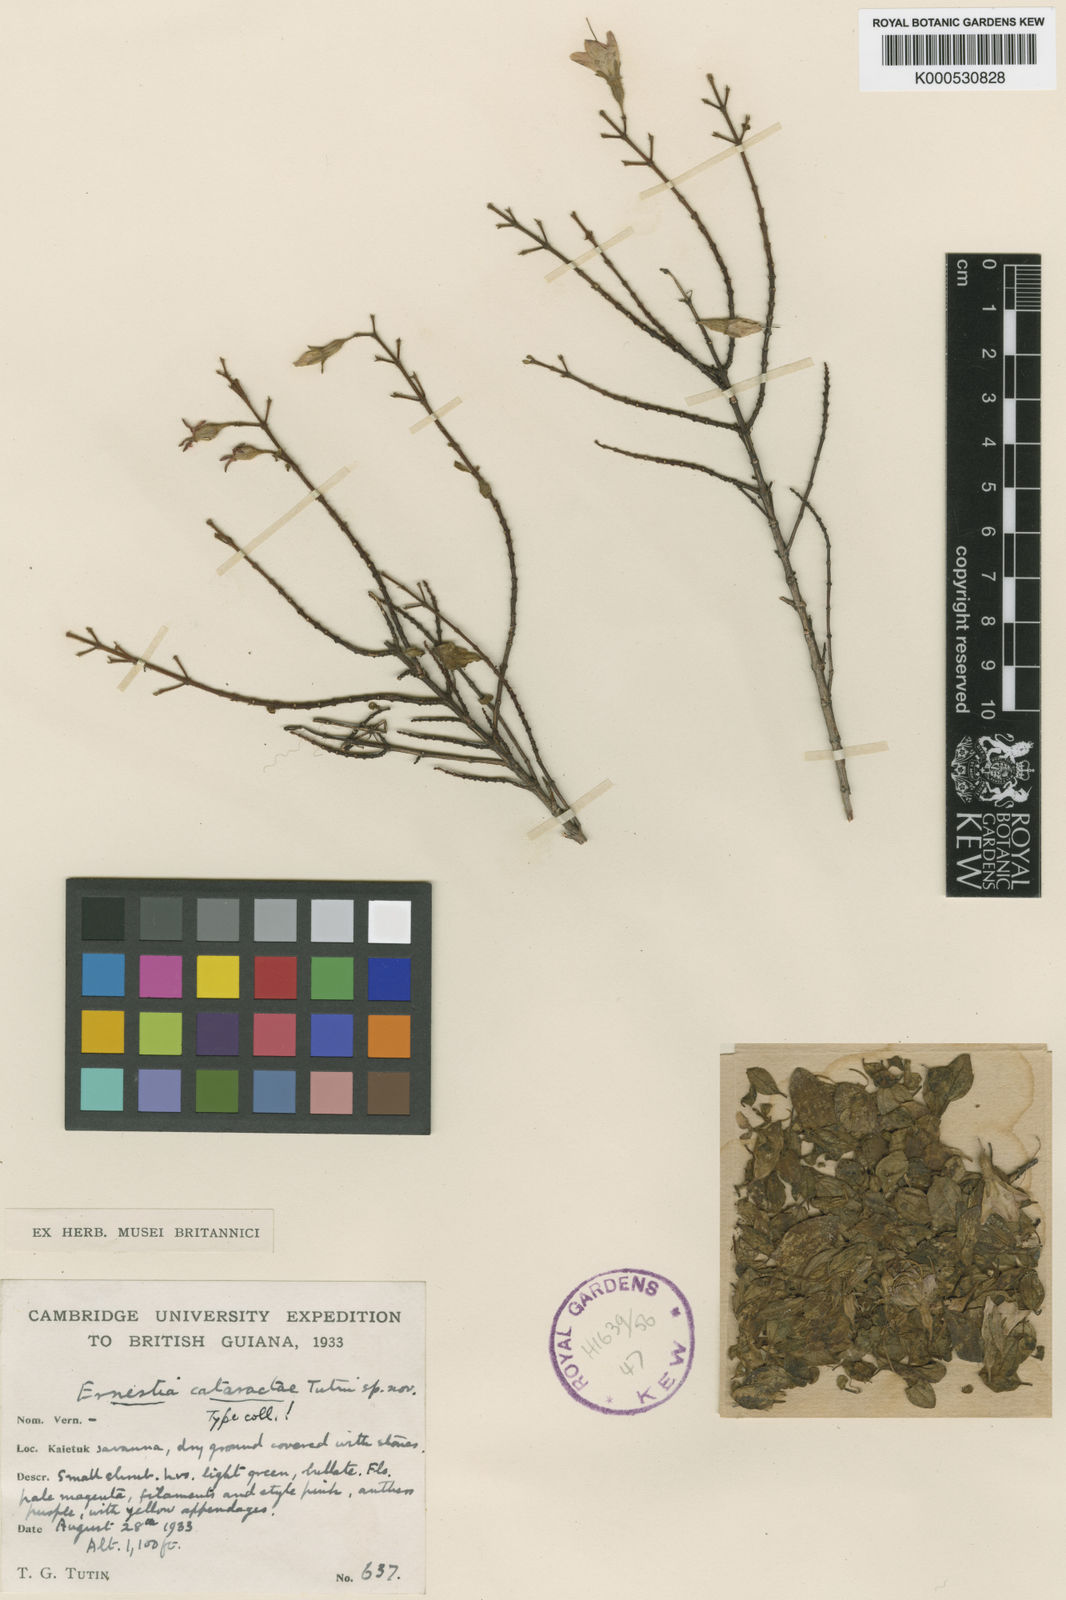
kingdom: Plantae
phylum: Tracheophyta
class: Magnoliopsida
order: Myrtales
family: Melastomataceae
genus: Ernestia
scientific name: Ernestia cataractae
